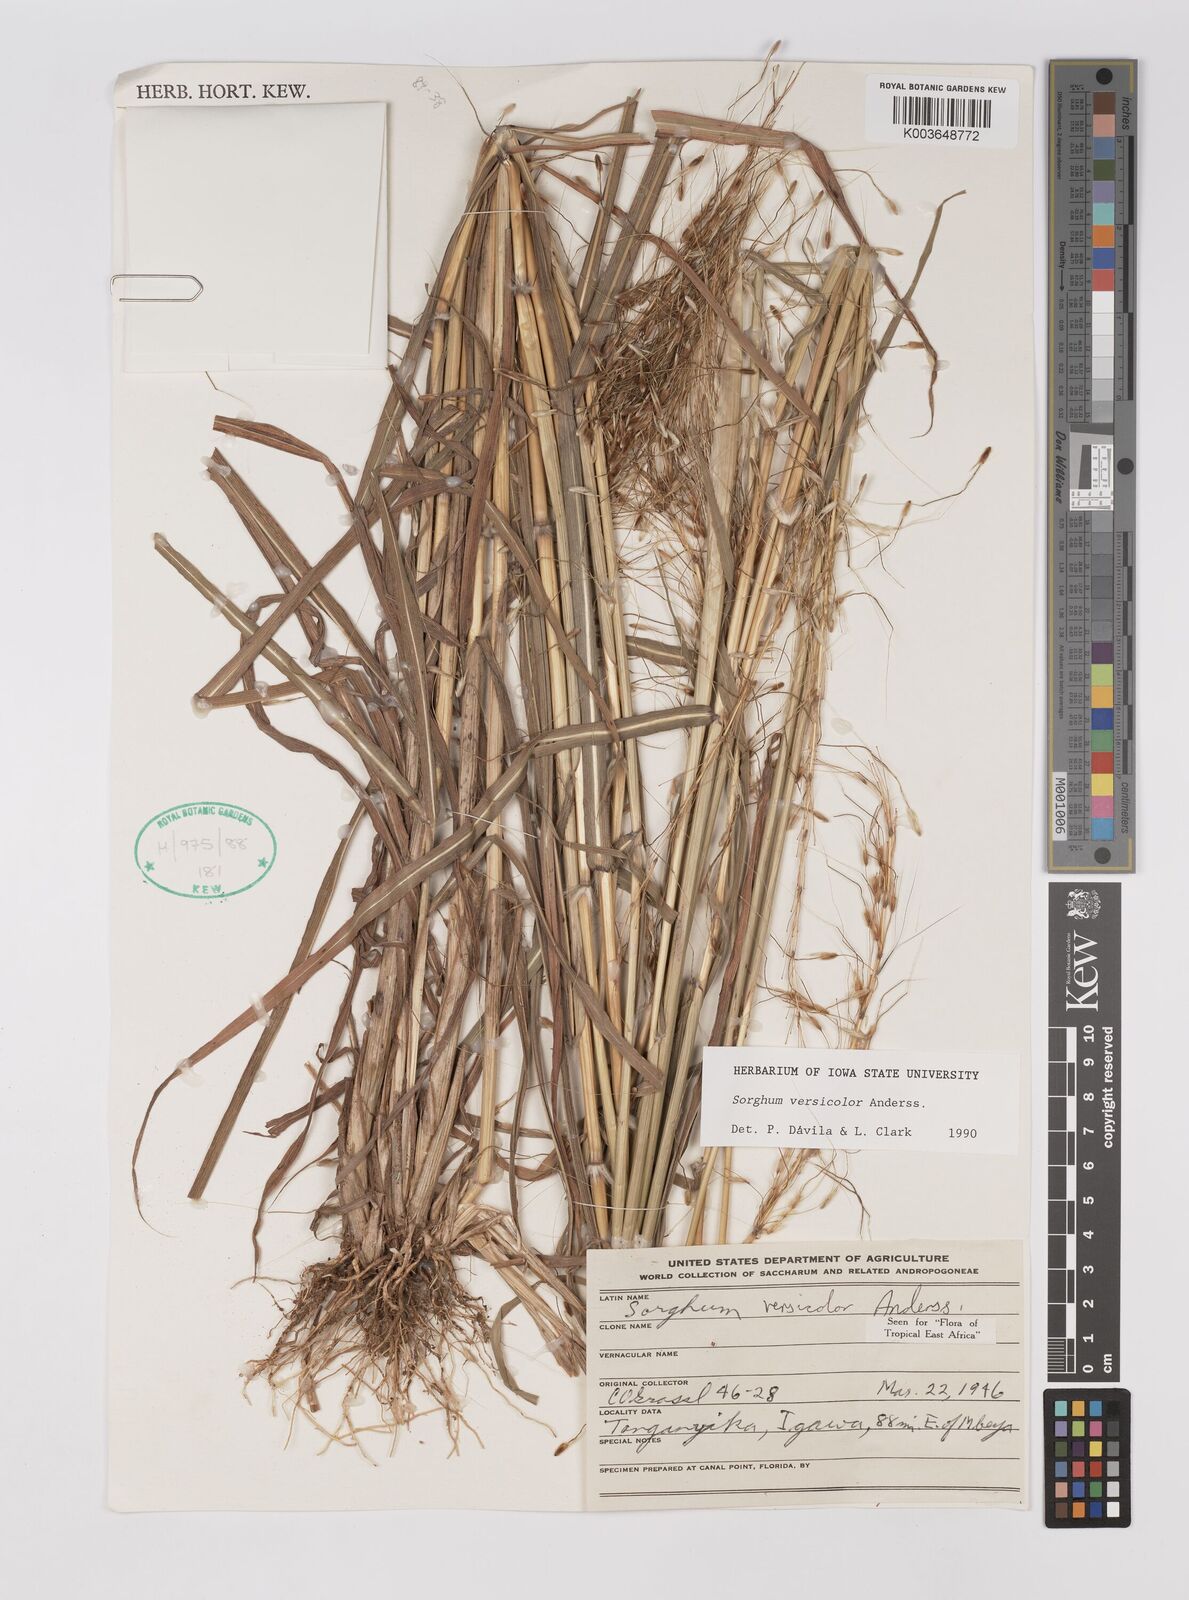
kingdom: Plantae
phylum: Tracheophyta
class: Liliopsida
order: Poales
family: Poaceae
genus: Sarga
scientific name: Sarga versicolor
